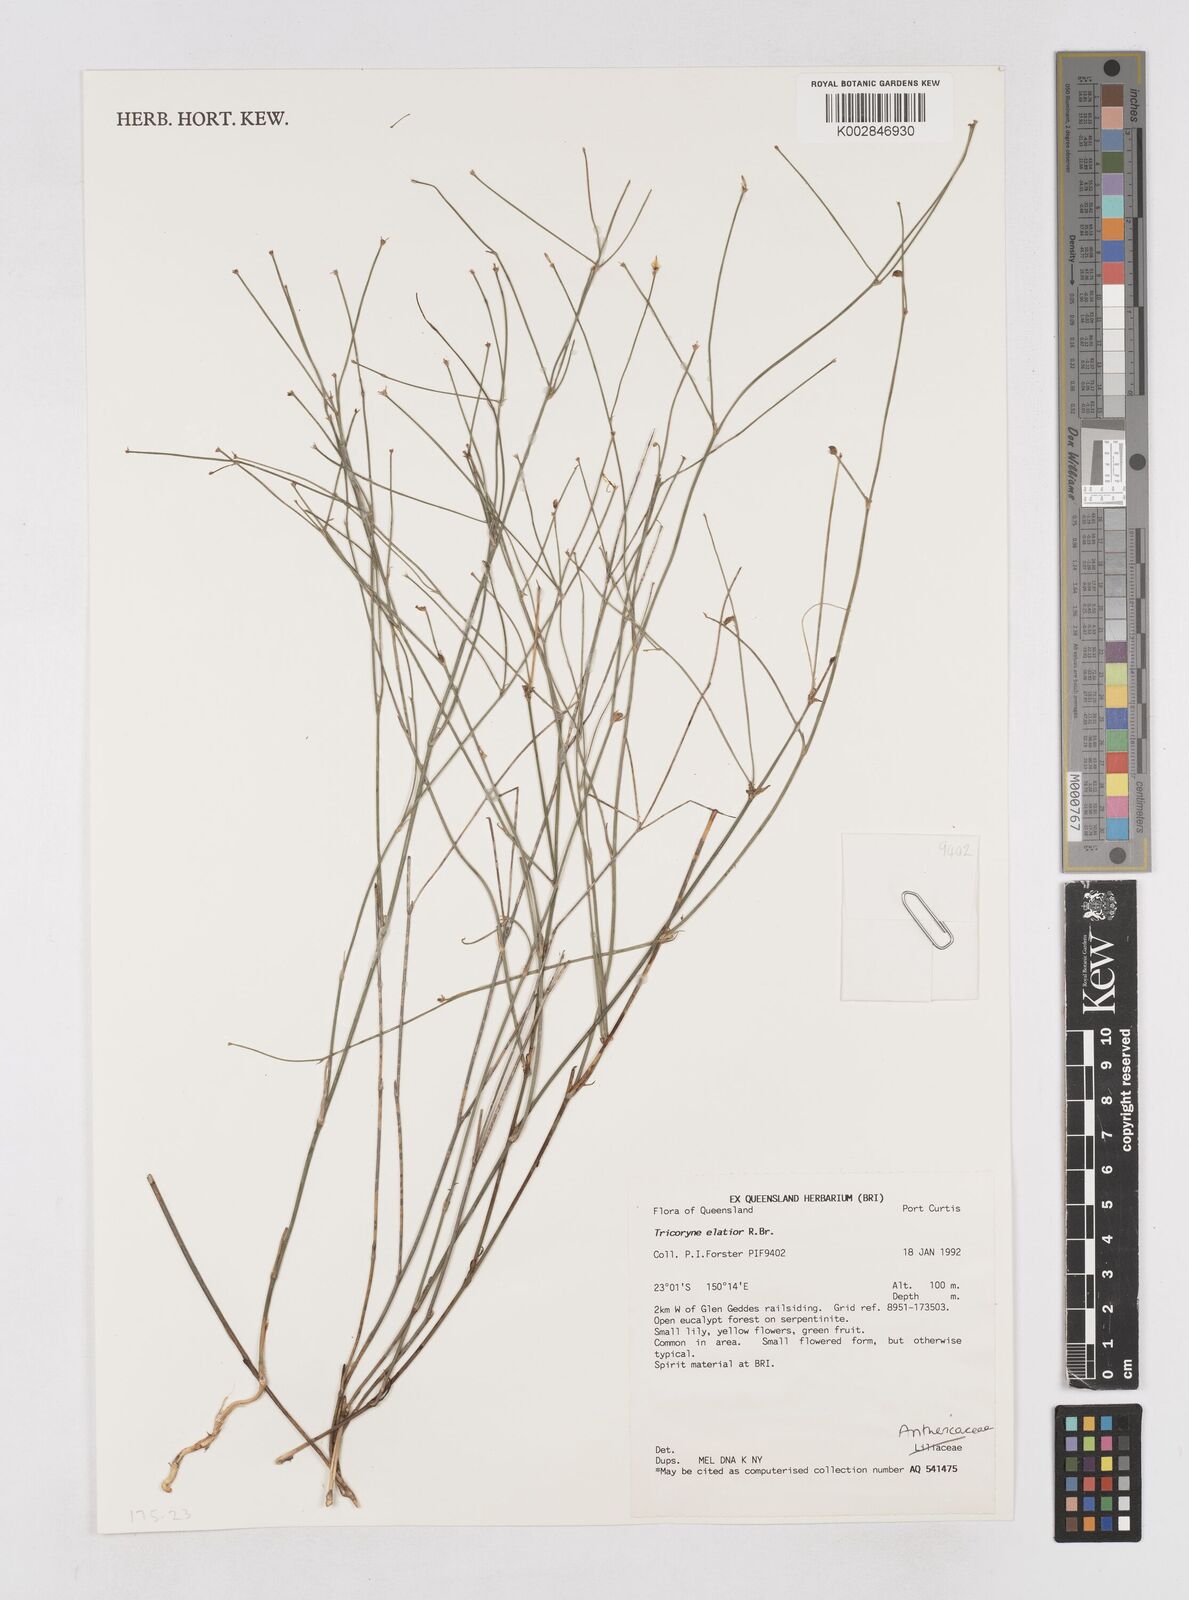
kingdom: Plantae
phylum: Tracheophyta
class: Liliopsida
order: Asparagales
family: Asphodelaceae
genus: Tricoryne
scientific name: Tricoryne elatior
